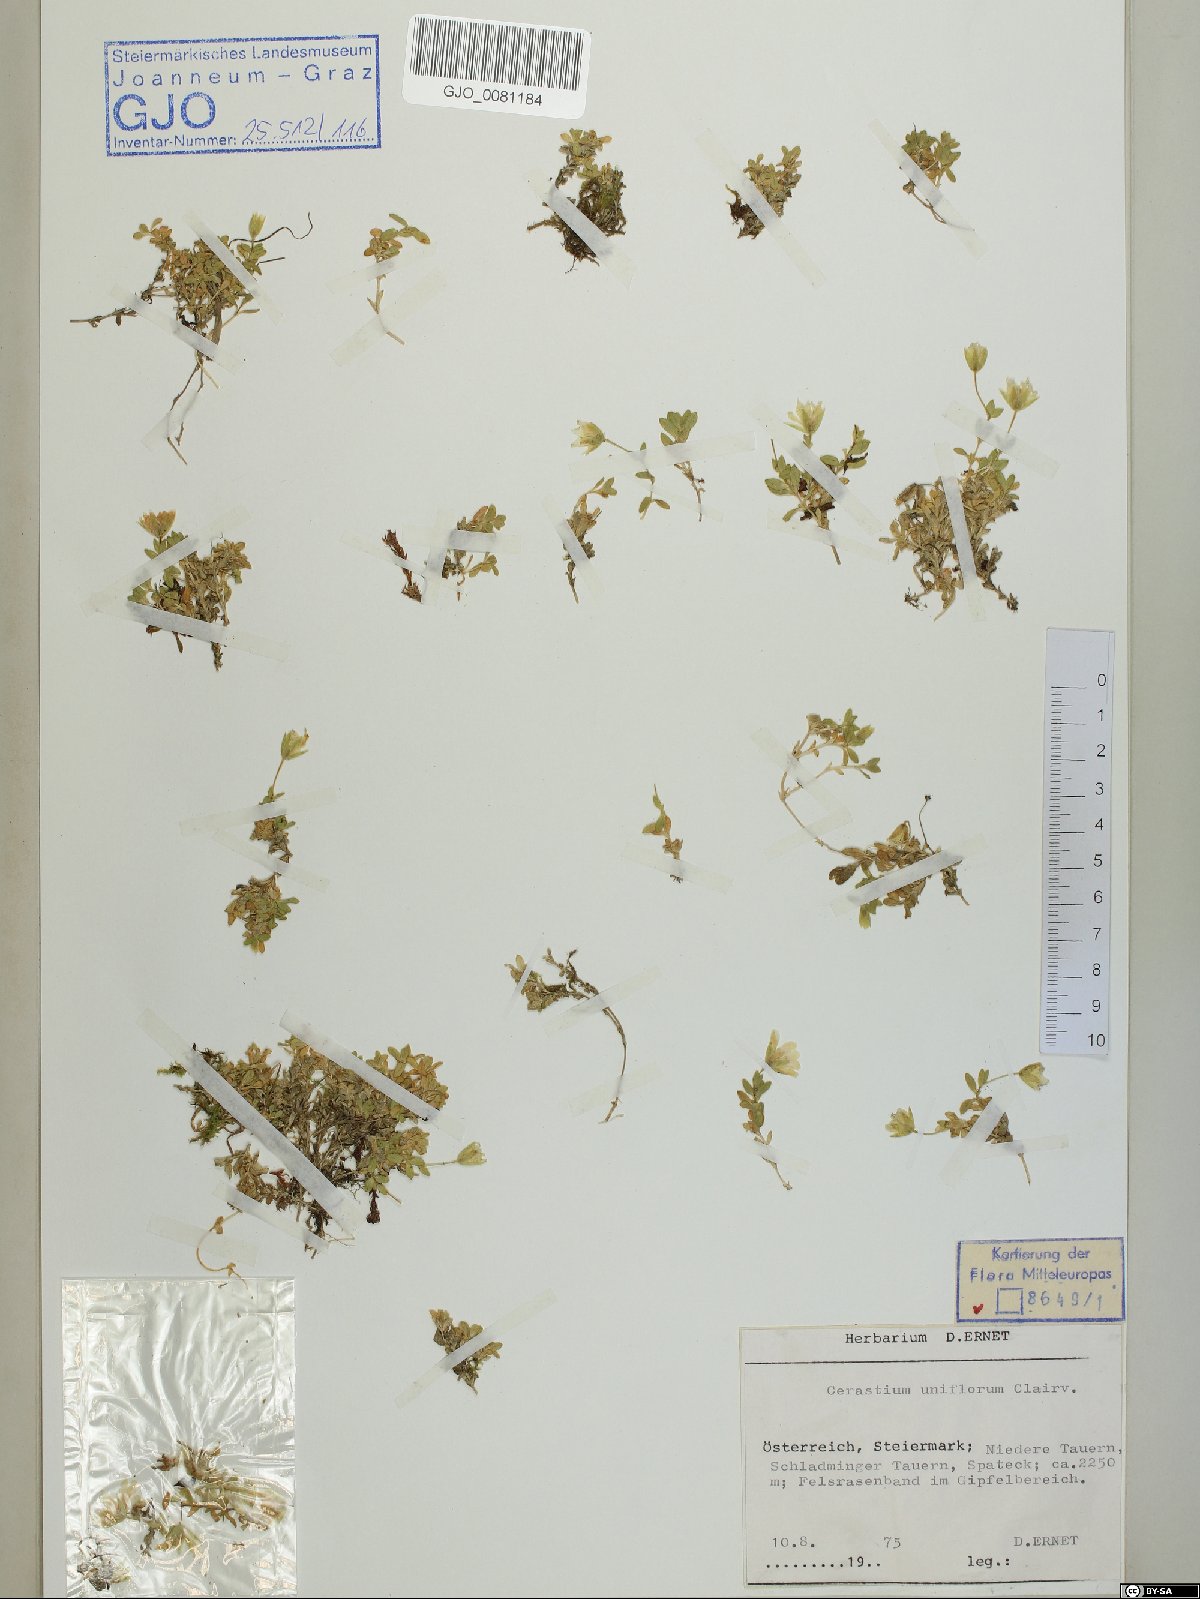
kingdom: Plantae
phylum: Tracheophyta
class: Magnoliopsida
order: Caryophyllales
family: Caryophyllaceae
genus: Cerastium
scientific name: Cerastium uniflorum
